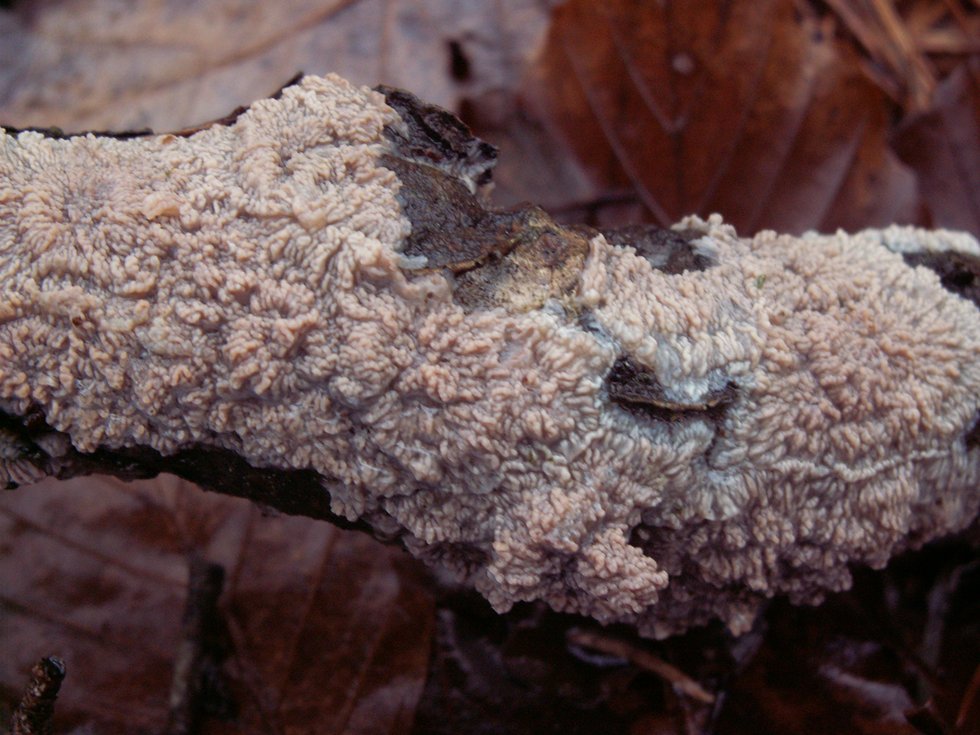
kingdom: Fungi
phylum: Basidiomycota
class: Agaricomycetes
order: Polyporales
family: Meruliaceae
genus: Phlebia
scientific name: Phlebia radiata
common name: stråle-åresvamp
